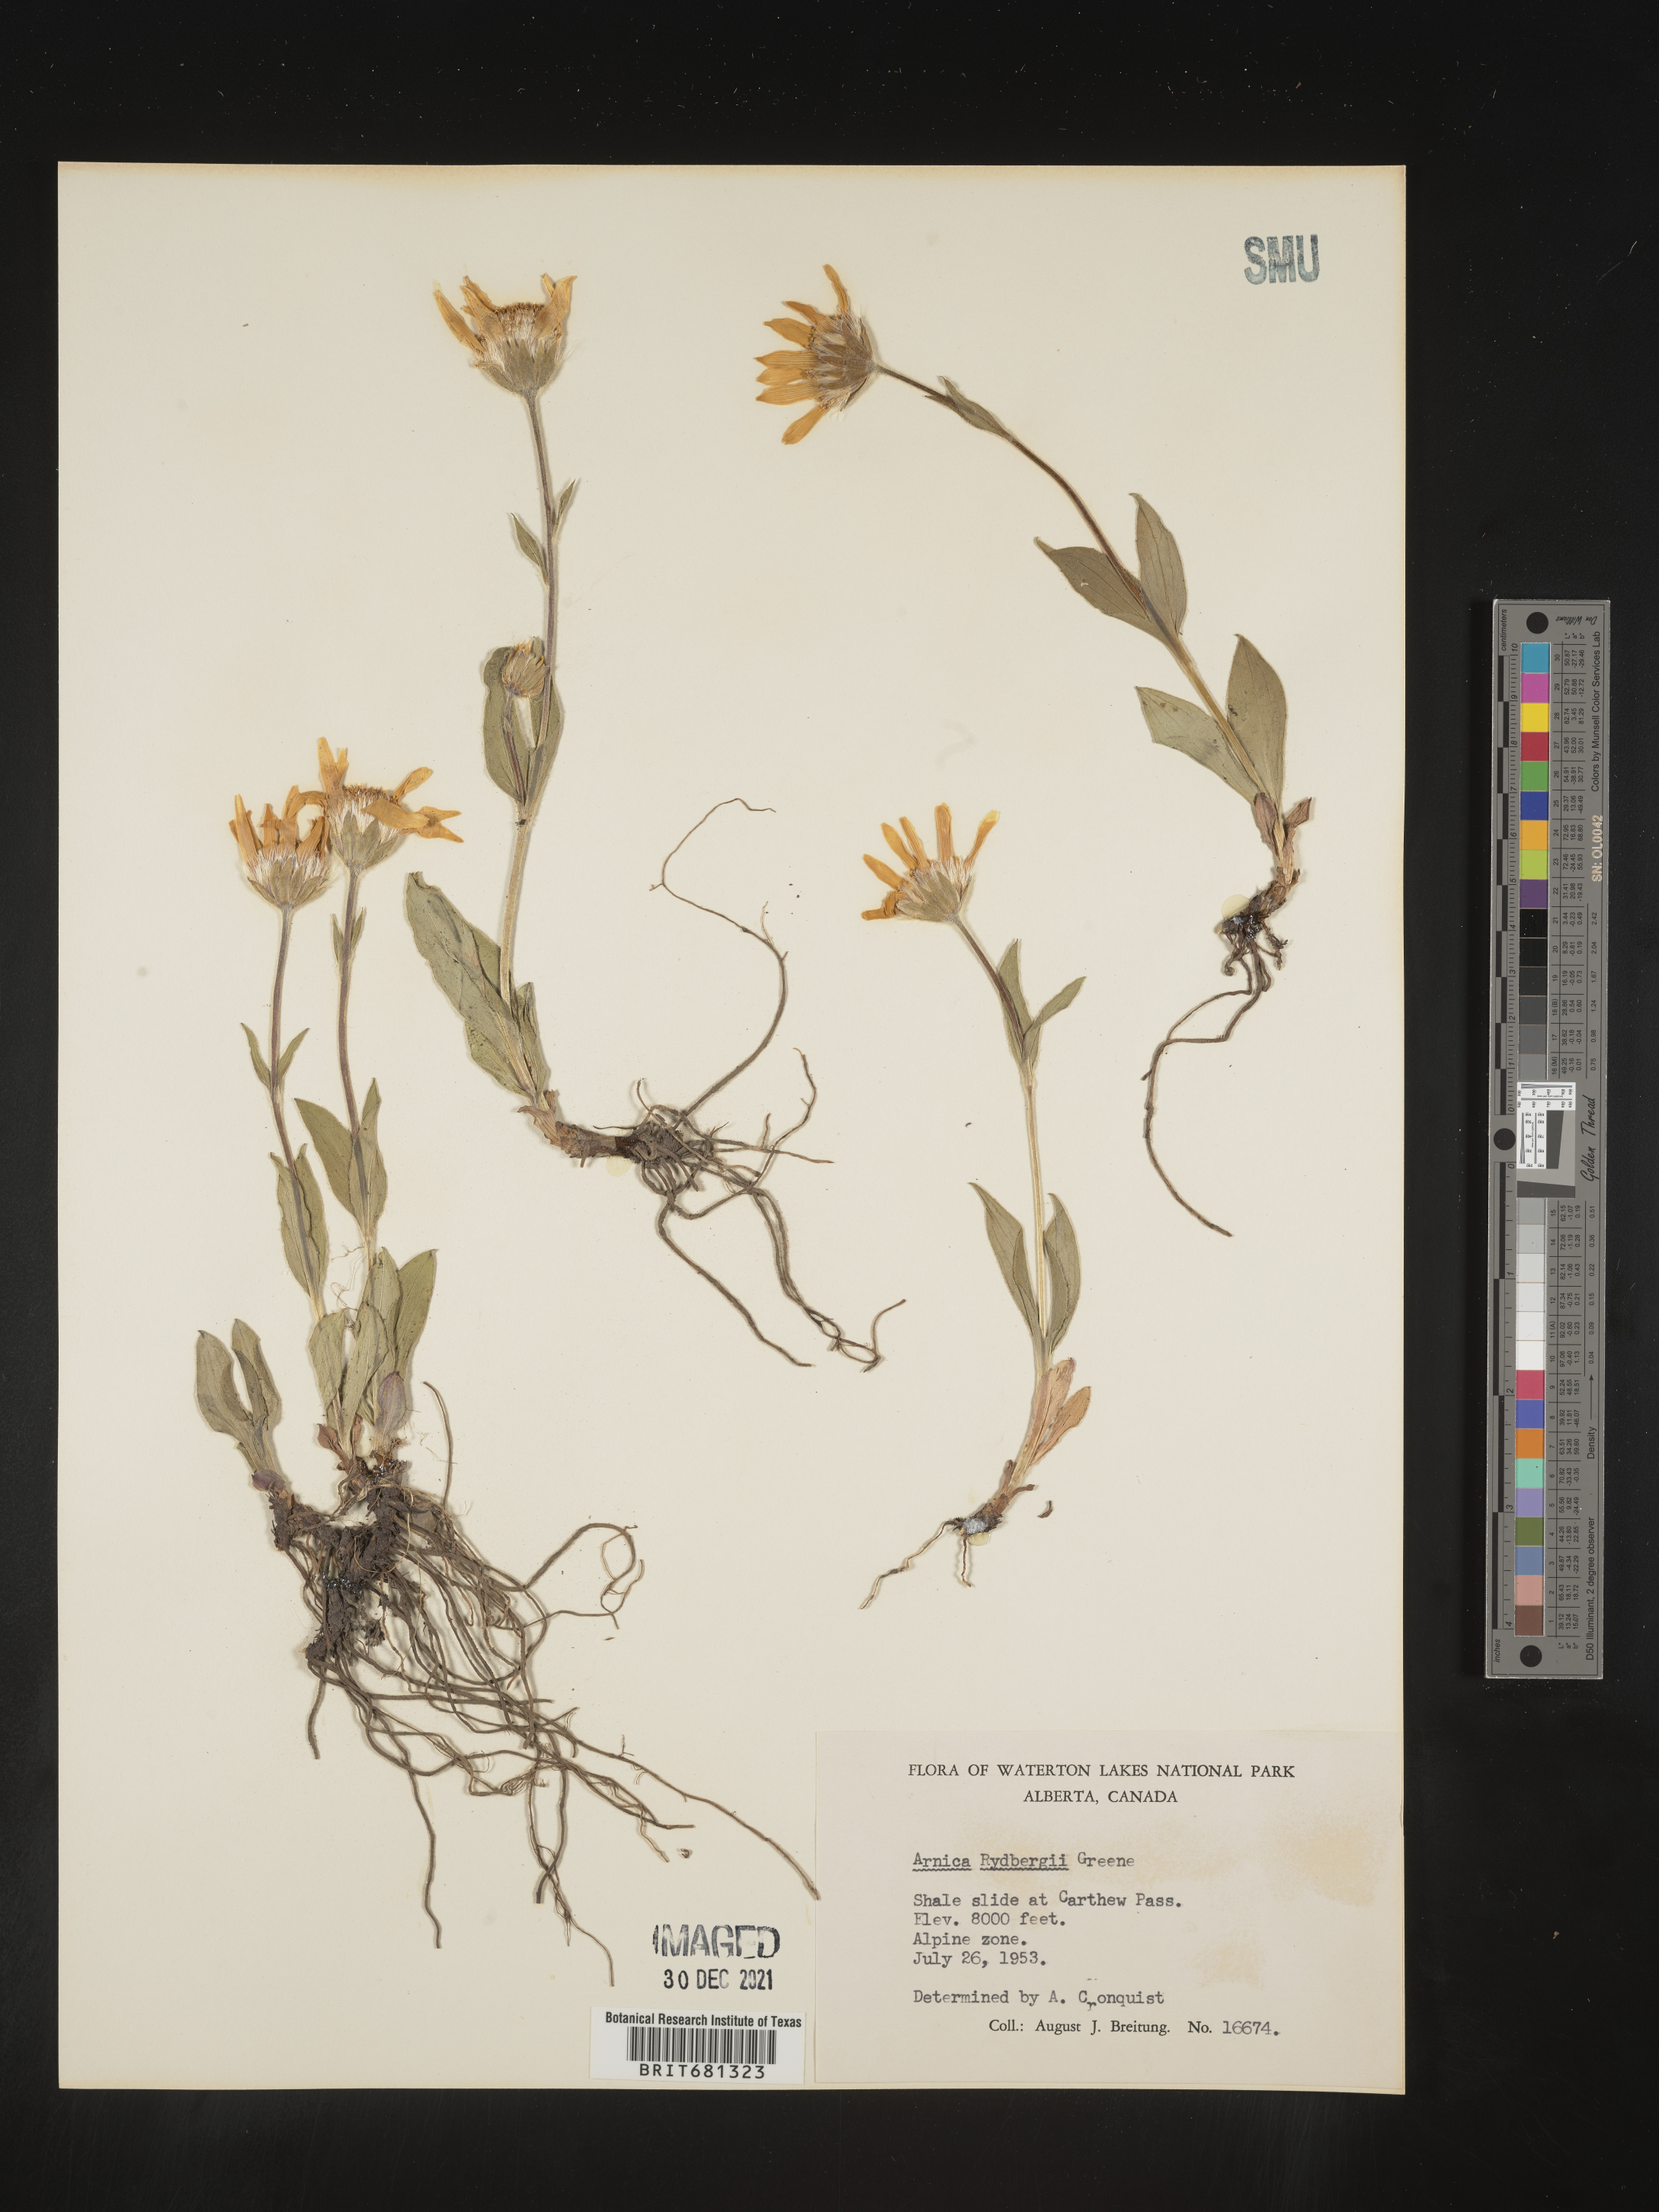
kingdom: Plantae
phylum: Tracheophyta
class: Magnoliopsida
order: Asterales
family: Asteraceae
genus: Arnica
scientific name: Arnica rydbergii
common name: Rydberg's arnica
